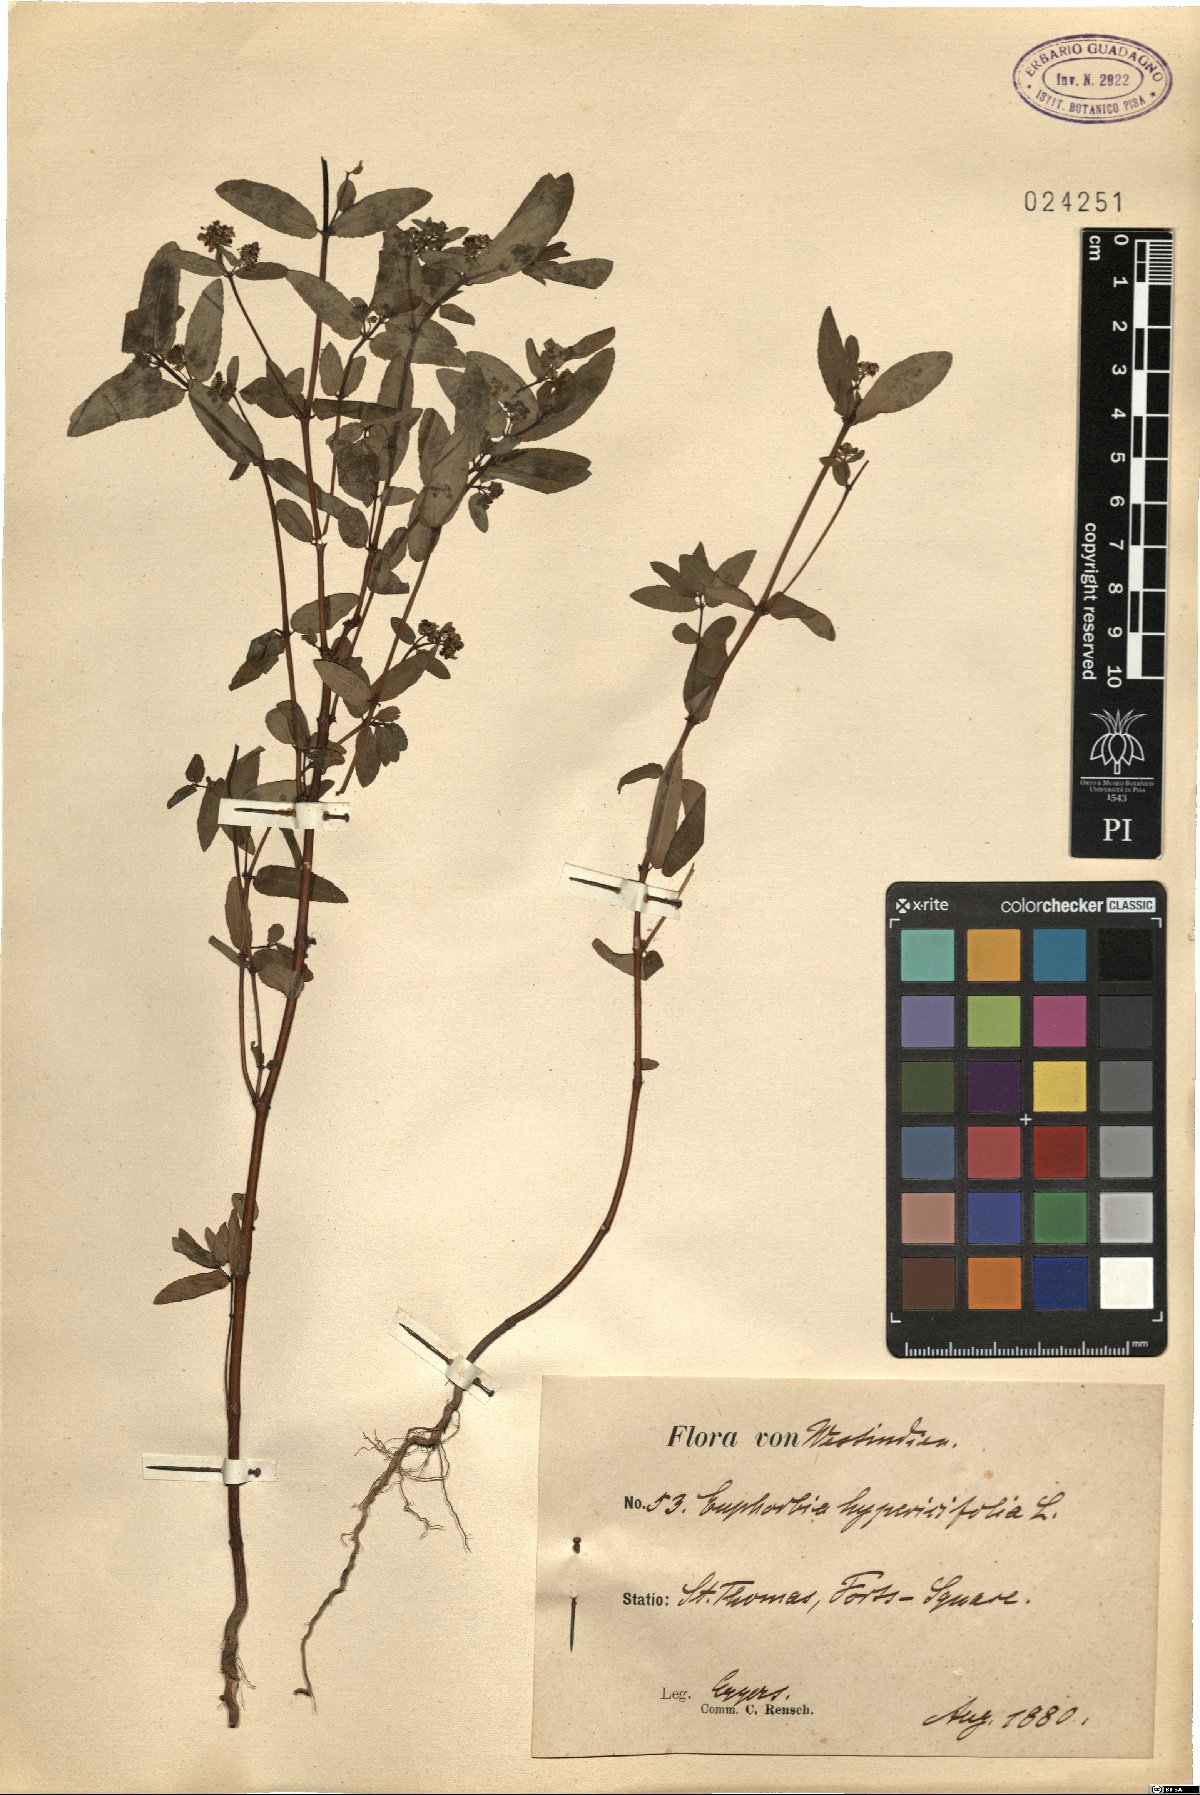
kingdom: Plantae
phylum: Tracheophyta
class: Magnoliopsida
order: Malpighiales
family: Euphorbiaceae
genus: Euphorbia
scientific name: Euphorbia hypericifolia
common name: Graceful sandmat
